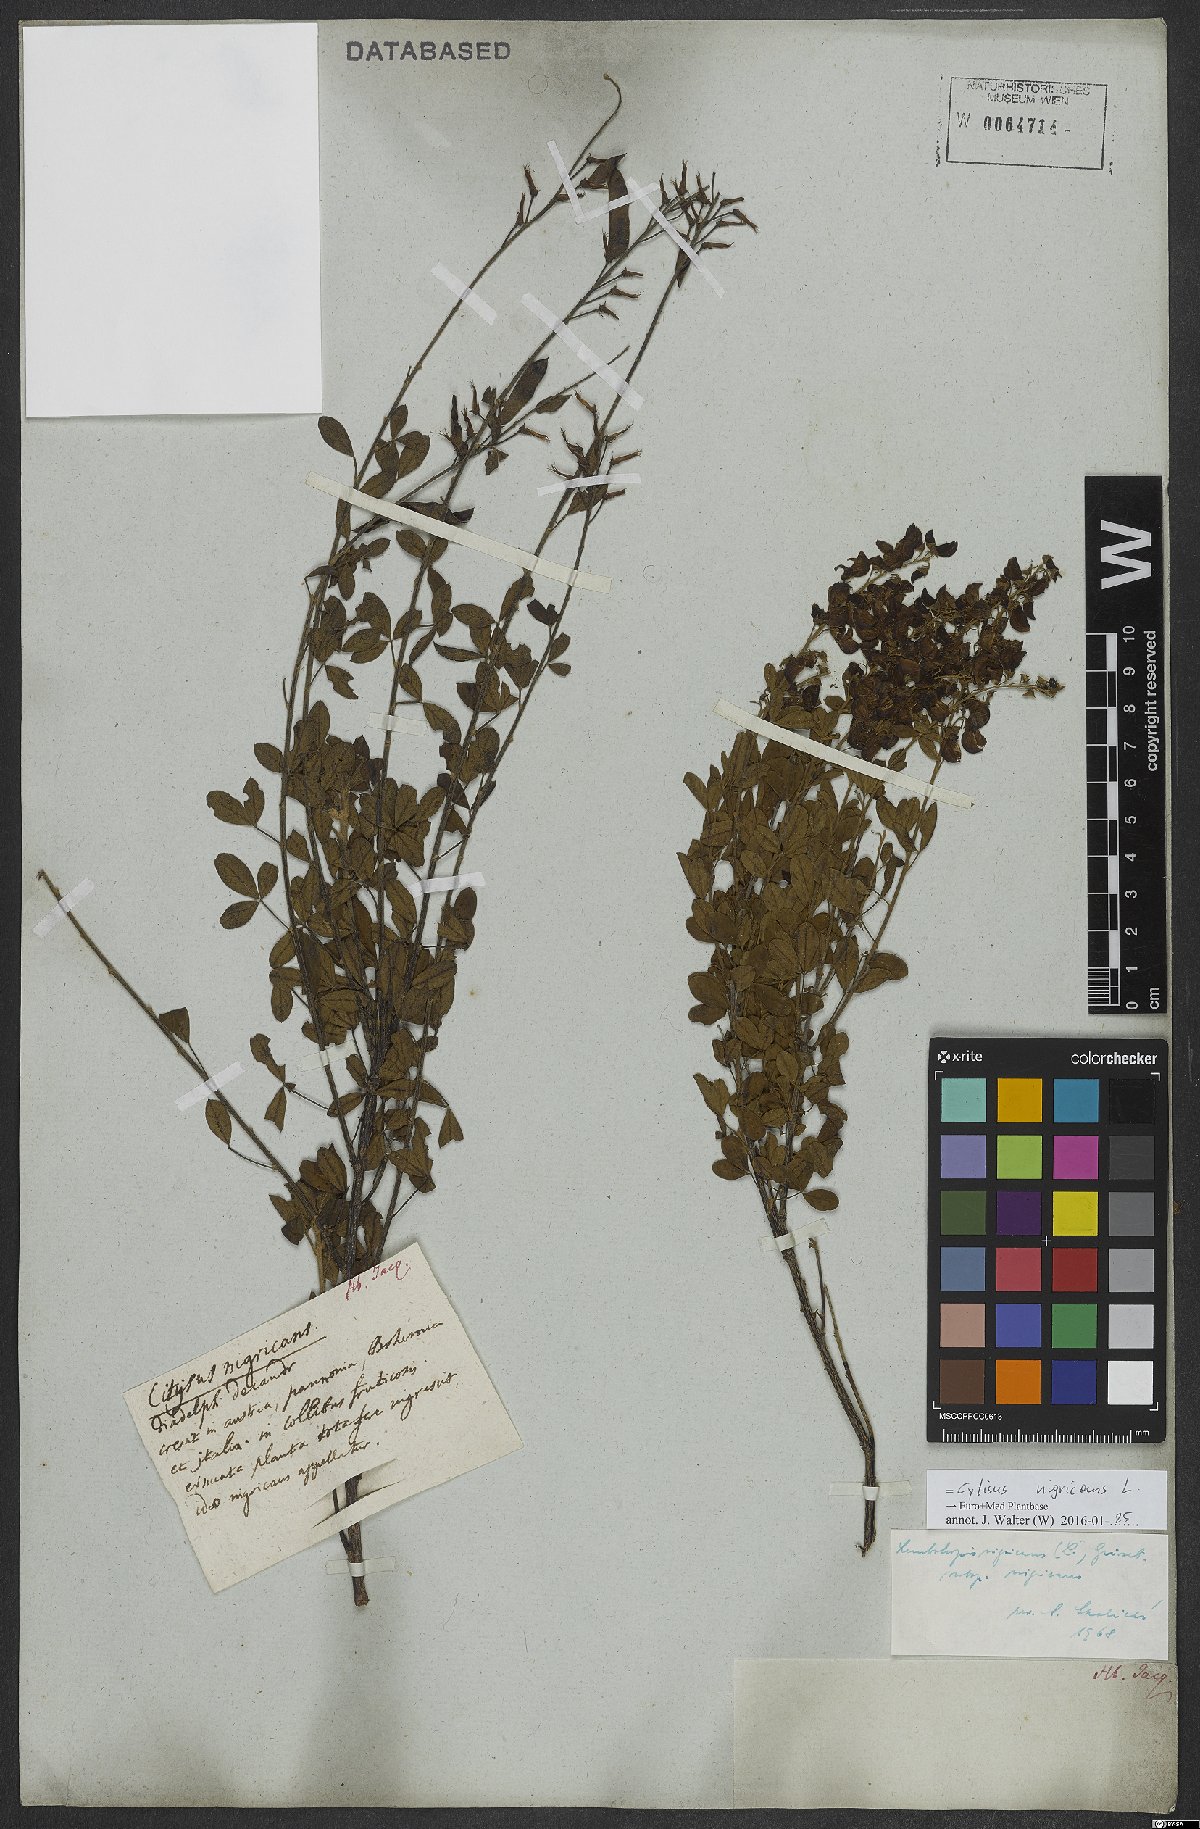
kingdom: Plantae
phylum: Tracheophyta
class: Magnoliopsida
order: Fabales
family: Fabaceae
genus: Cytisus
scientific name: Cytisus nigricans
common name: Black broom
